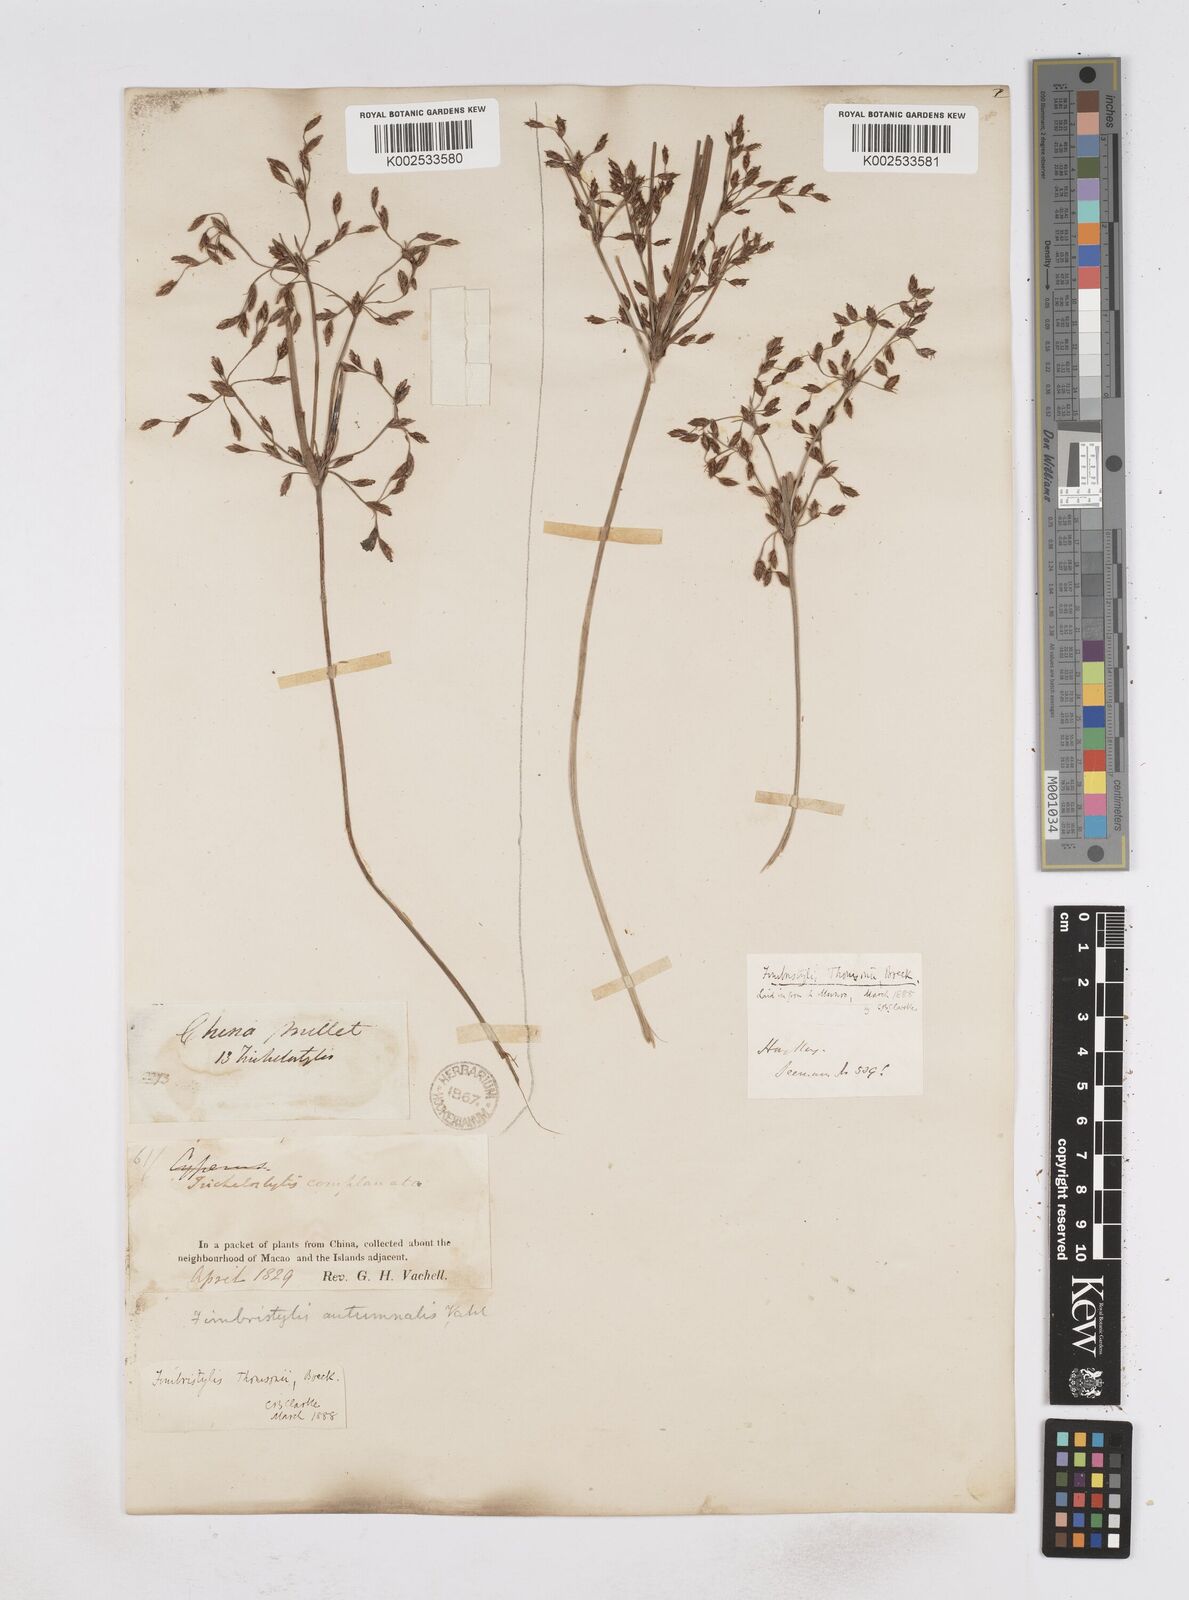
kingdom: Plantae
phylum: Tracheophyta
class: Liliopsida
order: Poales
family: Cyperaceae
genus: Fimbristylis
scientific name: Fimbristylis thomsonii
